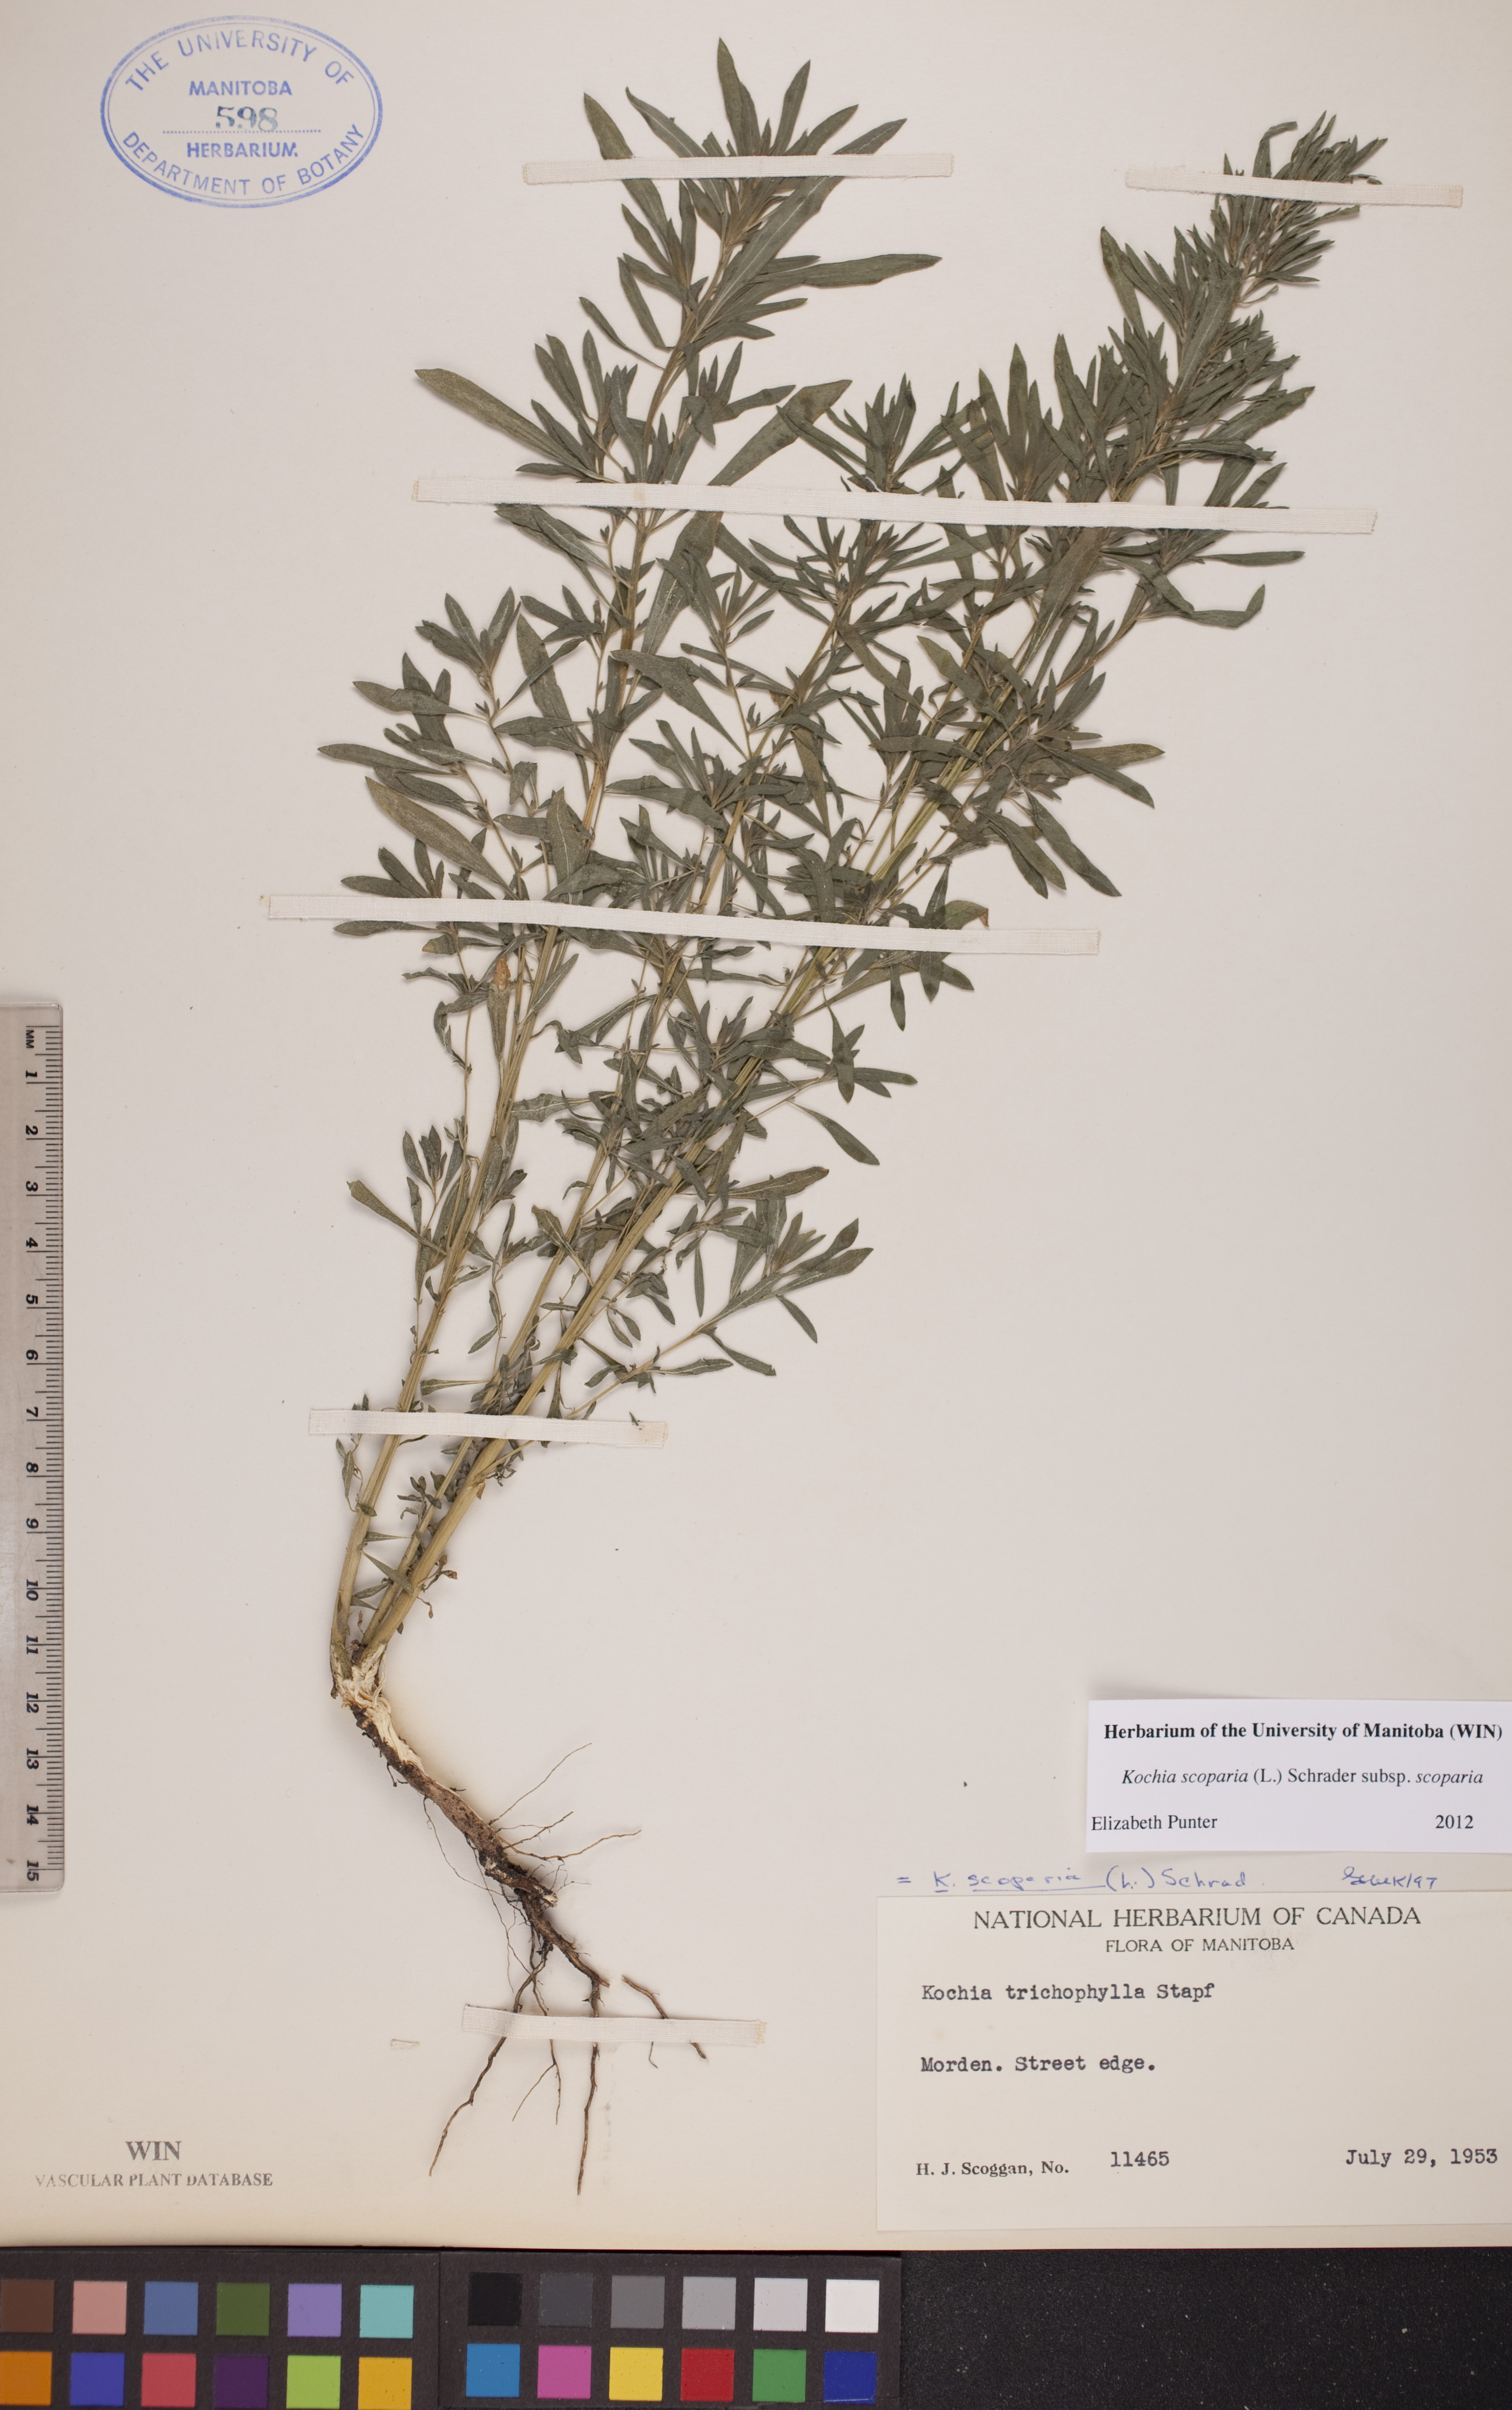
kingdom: Plantae
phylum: Tracheophyta
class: Magnoliopsida
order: Caryophyllales
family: Amaranthaceae
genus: Bassia
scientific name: Bassia scoparia
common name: Belvedere
